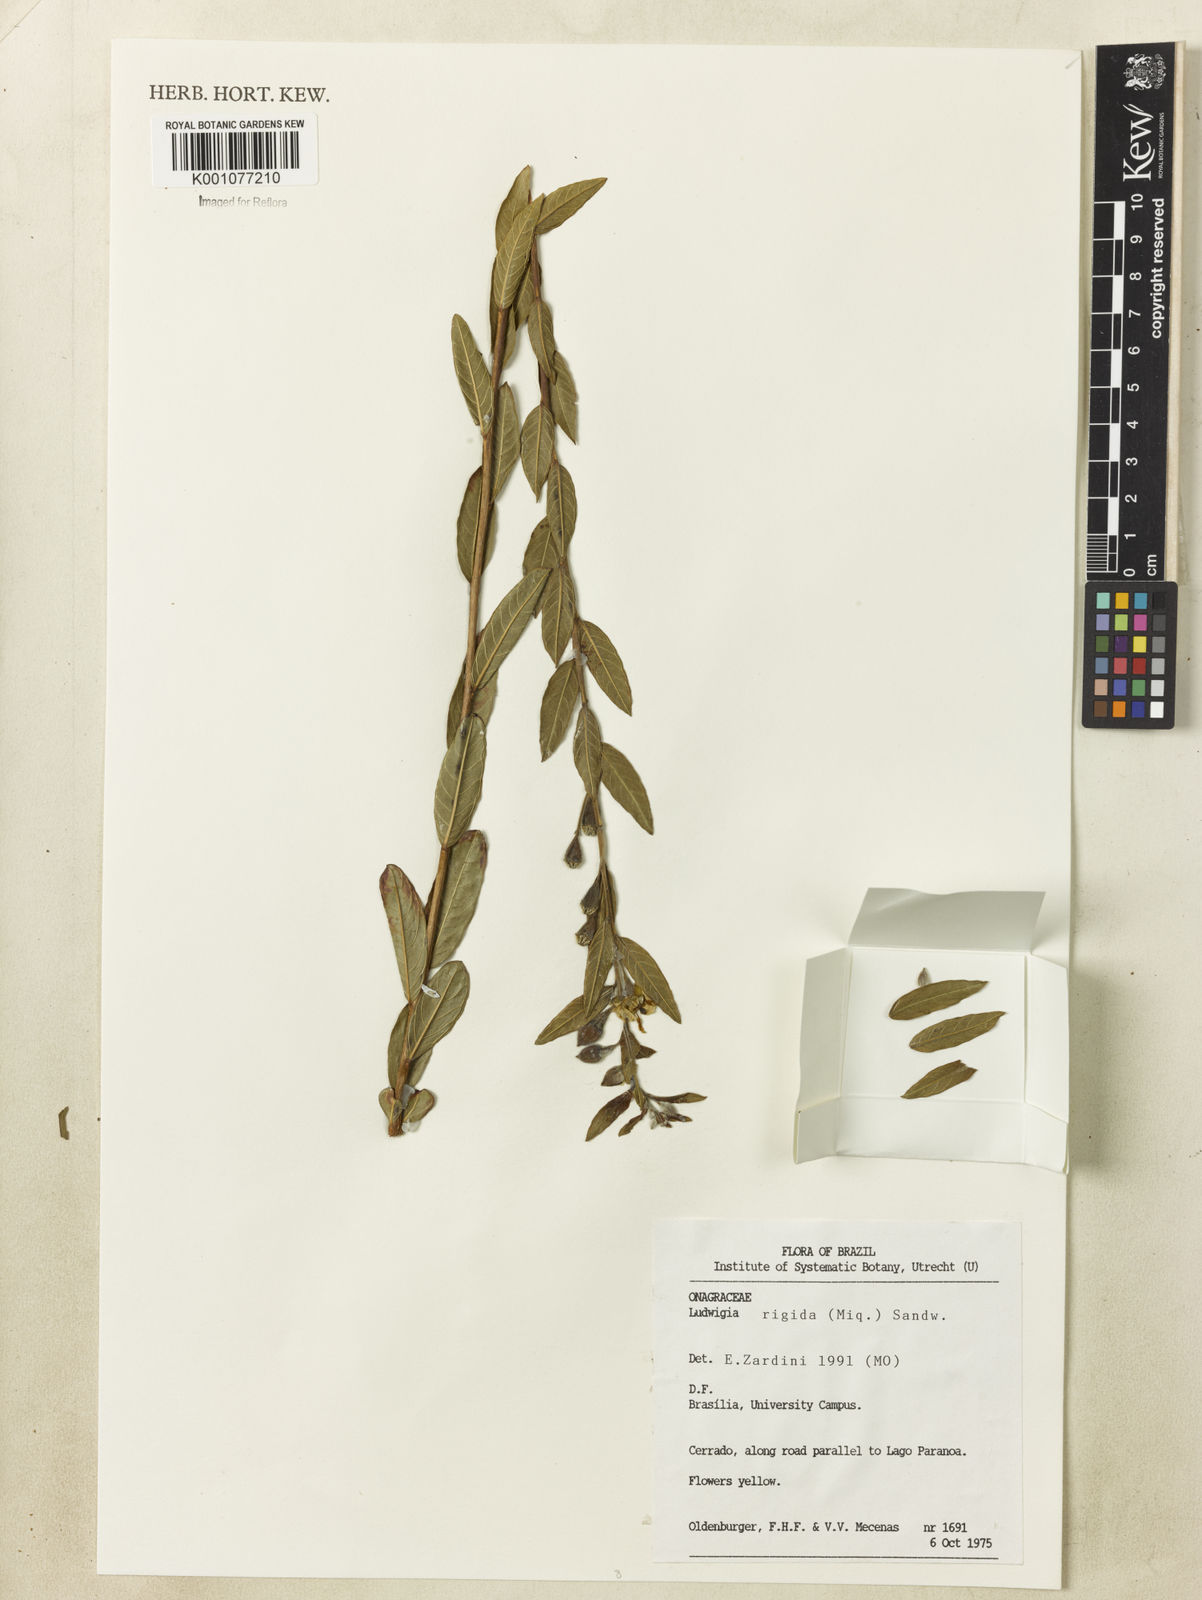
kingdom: Plantae
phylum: Tracheophyta
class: Magnoliopsida
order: Myrtales
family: Onagraceae
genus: Ludwigia
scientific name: Ludwigia rigida
